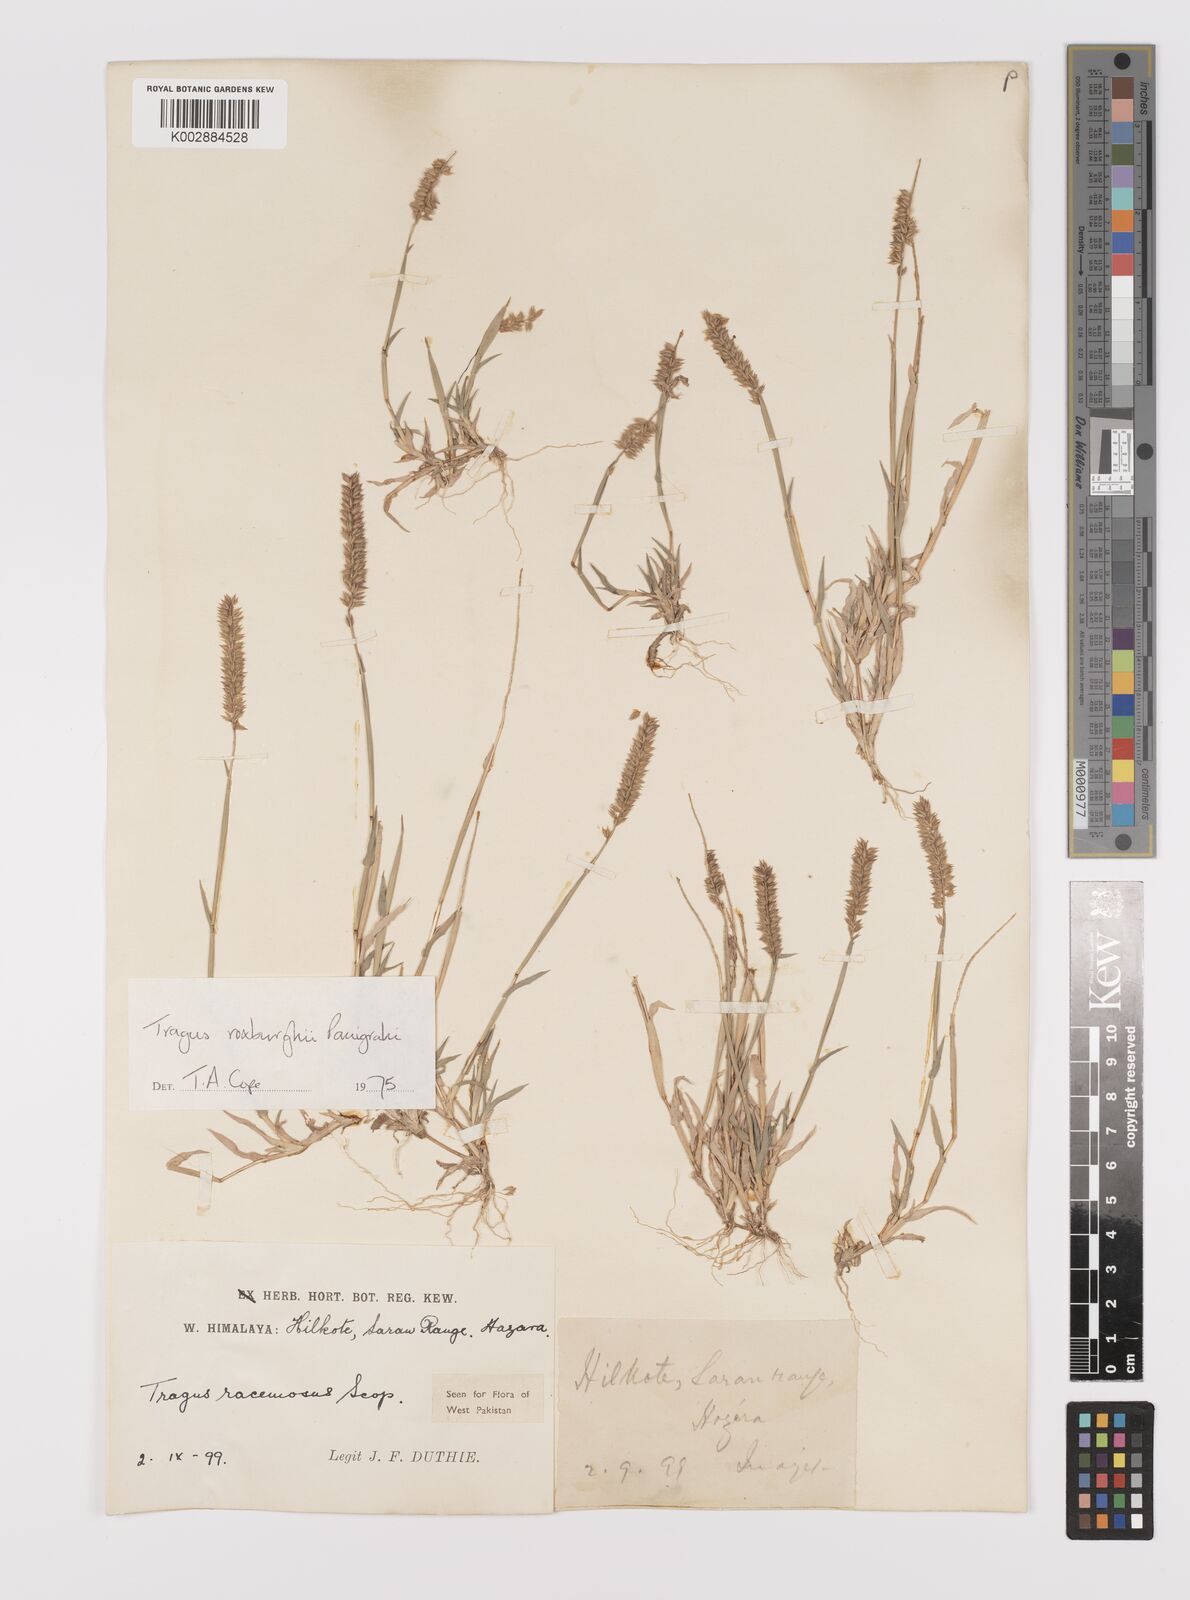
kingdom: Plantae
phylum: Tracheophyta
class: Liliopsida
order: Poales
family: Poaceae
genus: Tragus
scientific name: Tragus mongolorum
